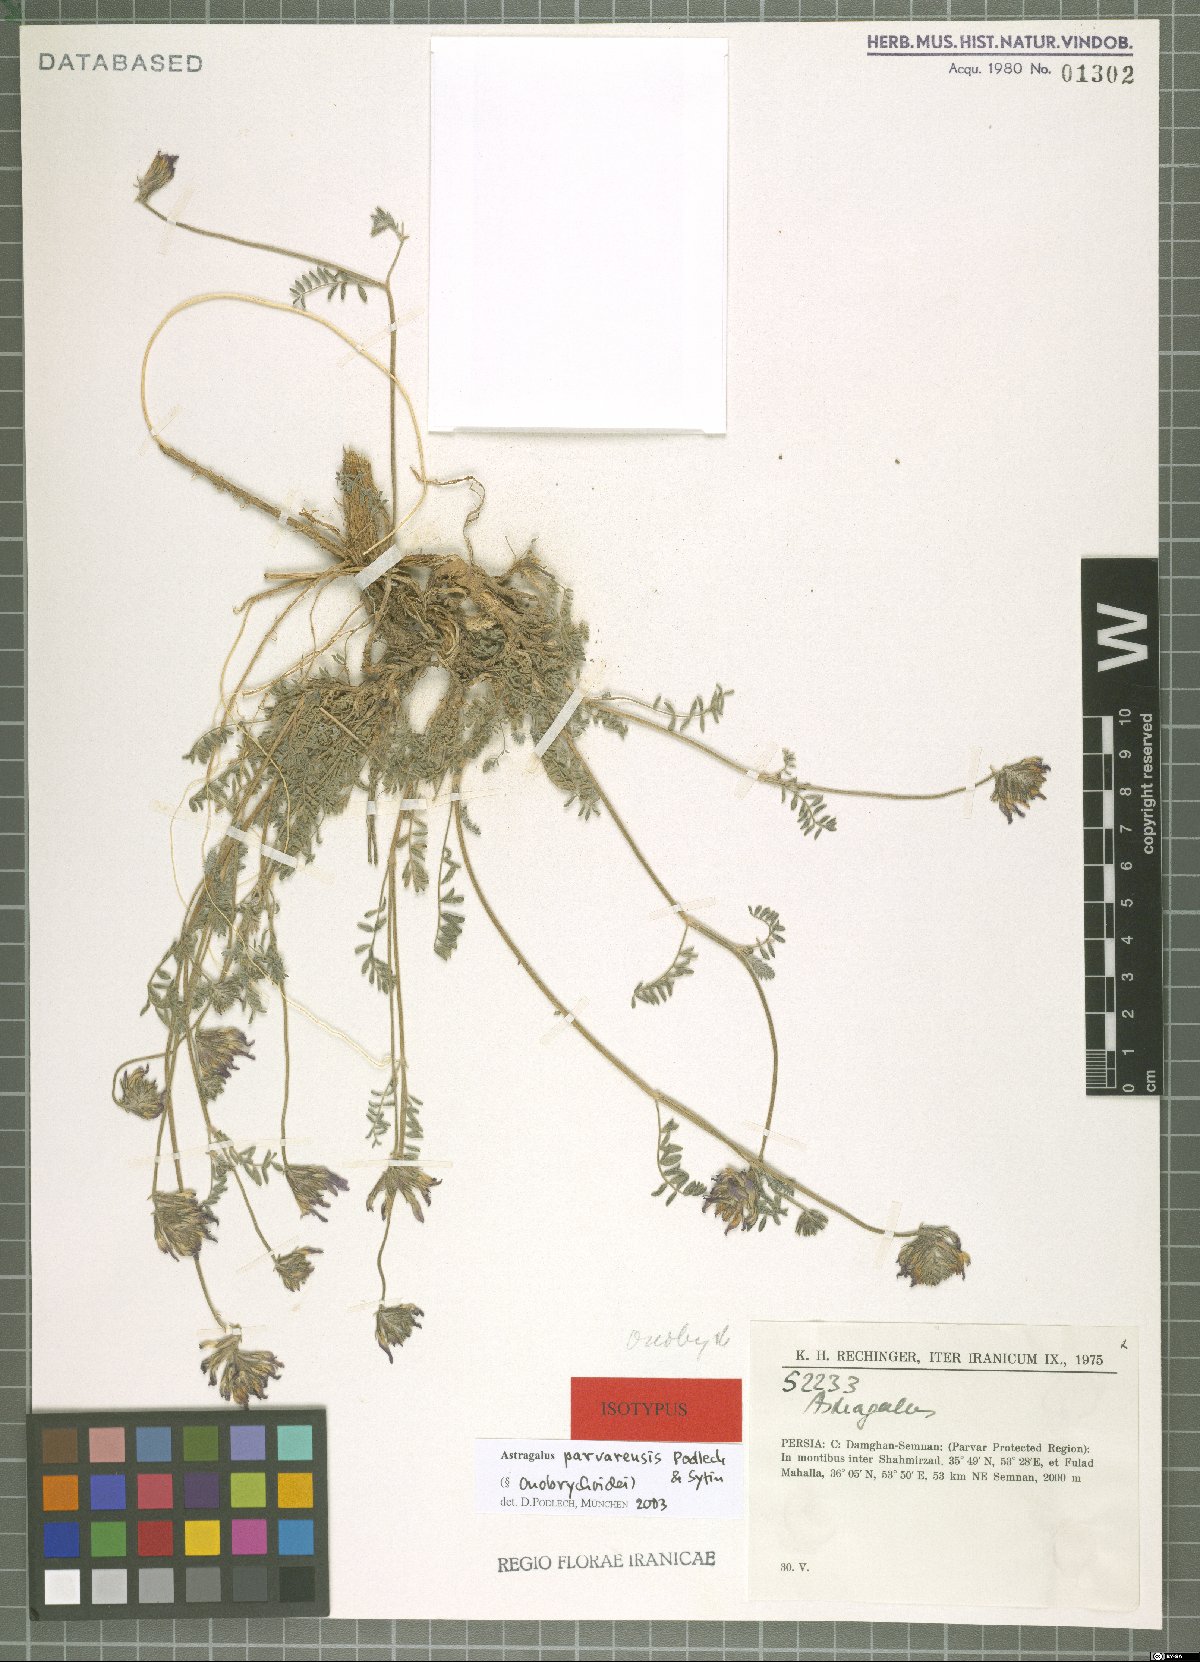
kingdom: Plantae
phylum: Tracheophyta
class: Magnoliopsida
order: Fabales
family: Fabaceae
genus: Astragalus
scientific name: Astragalus parvarensis
